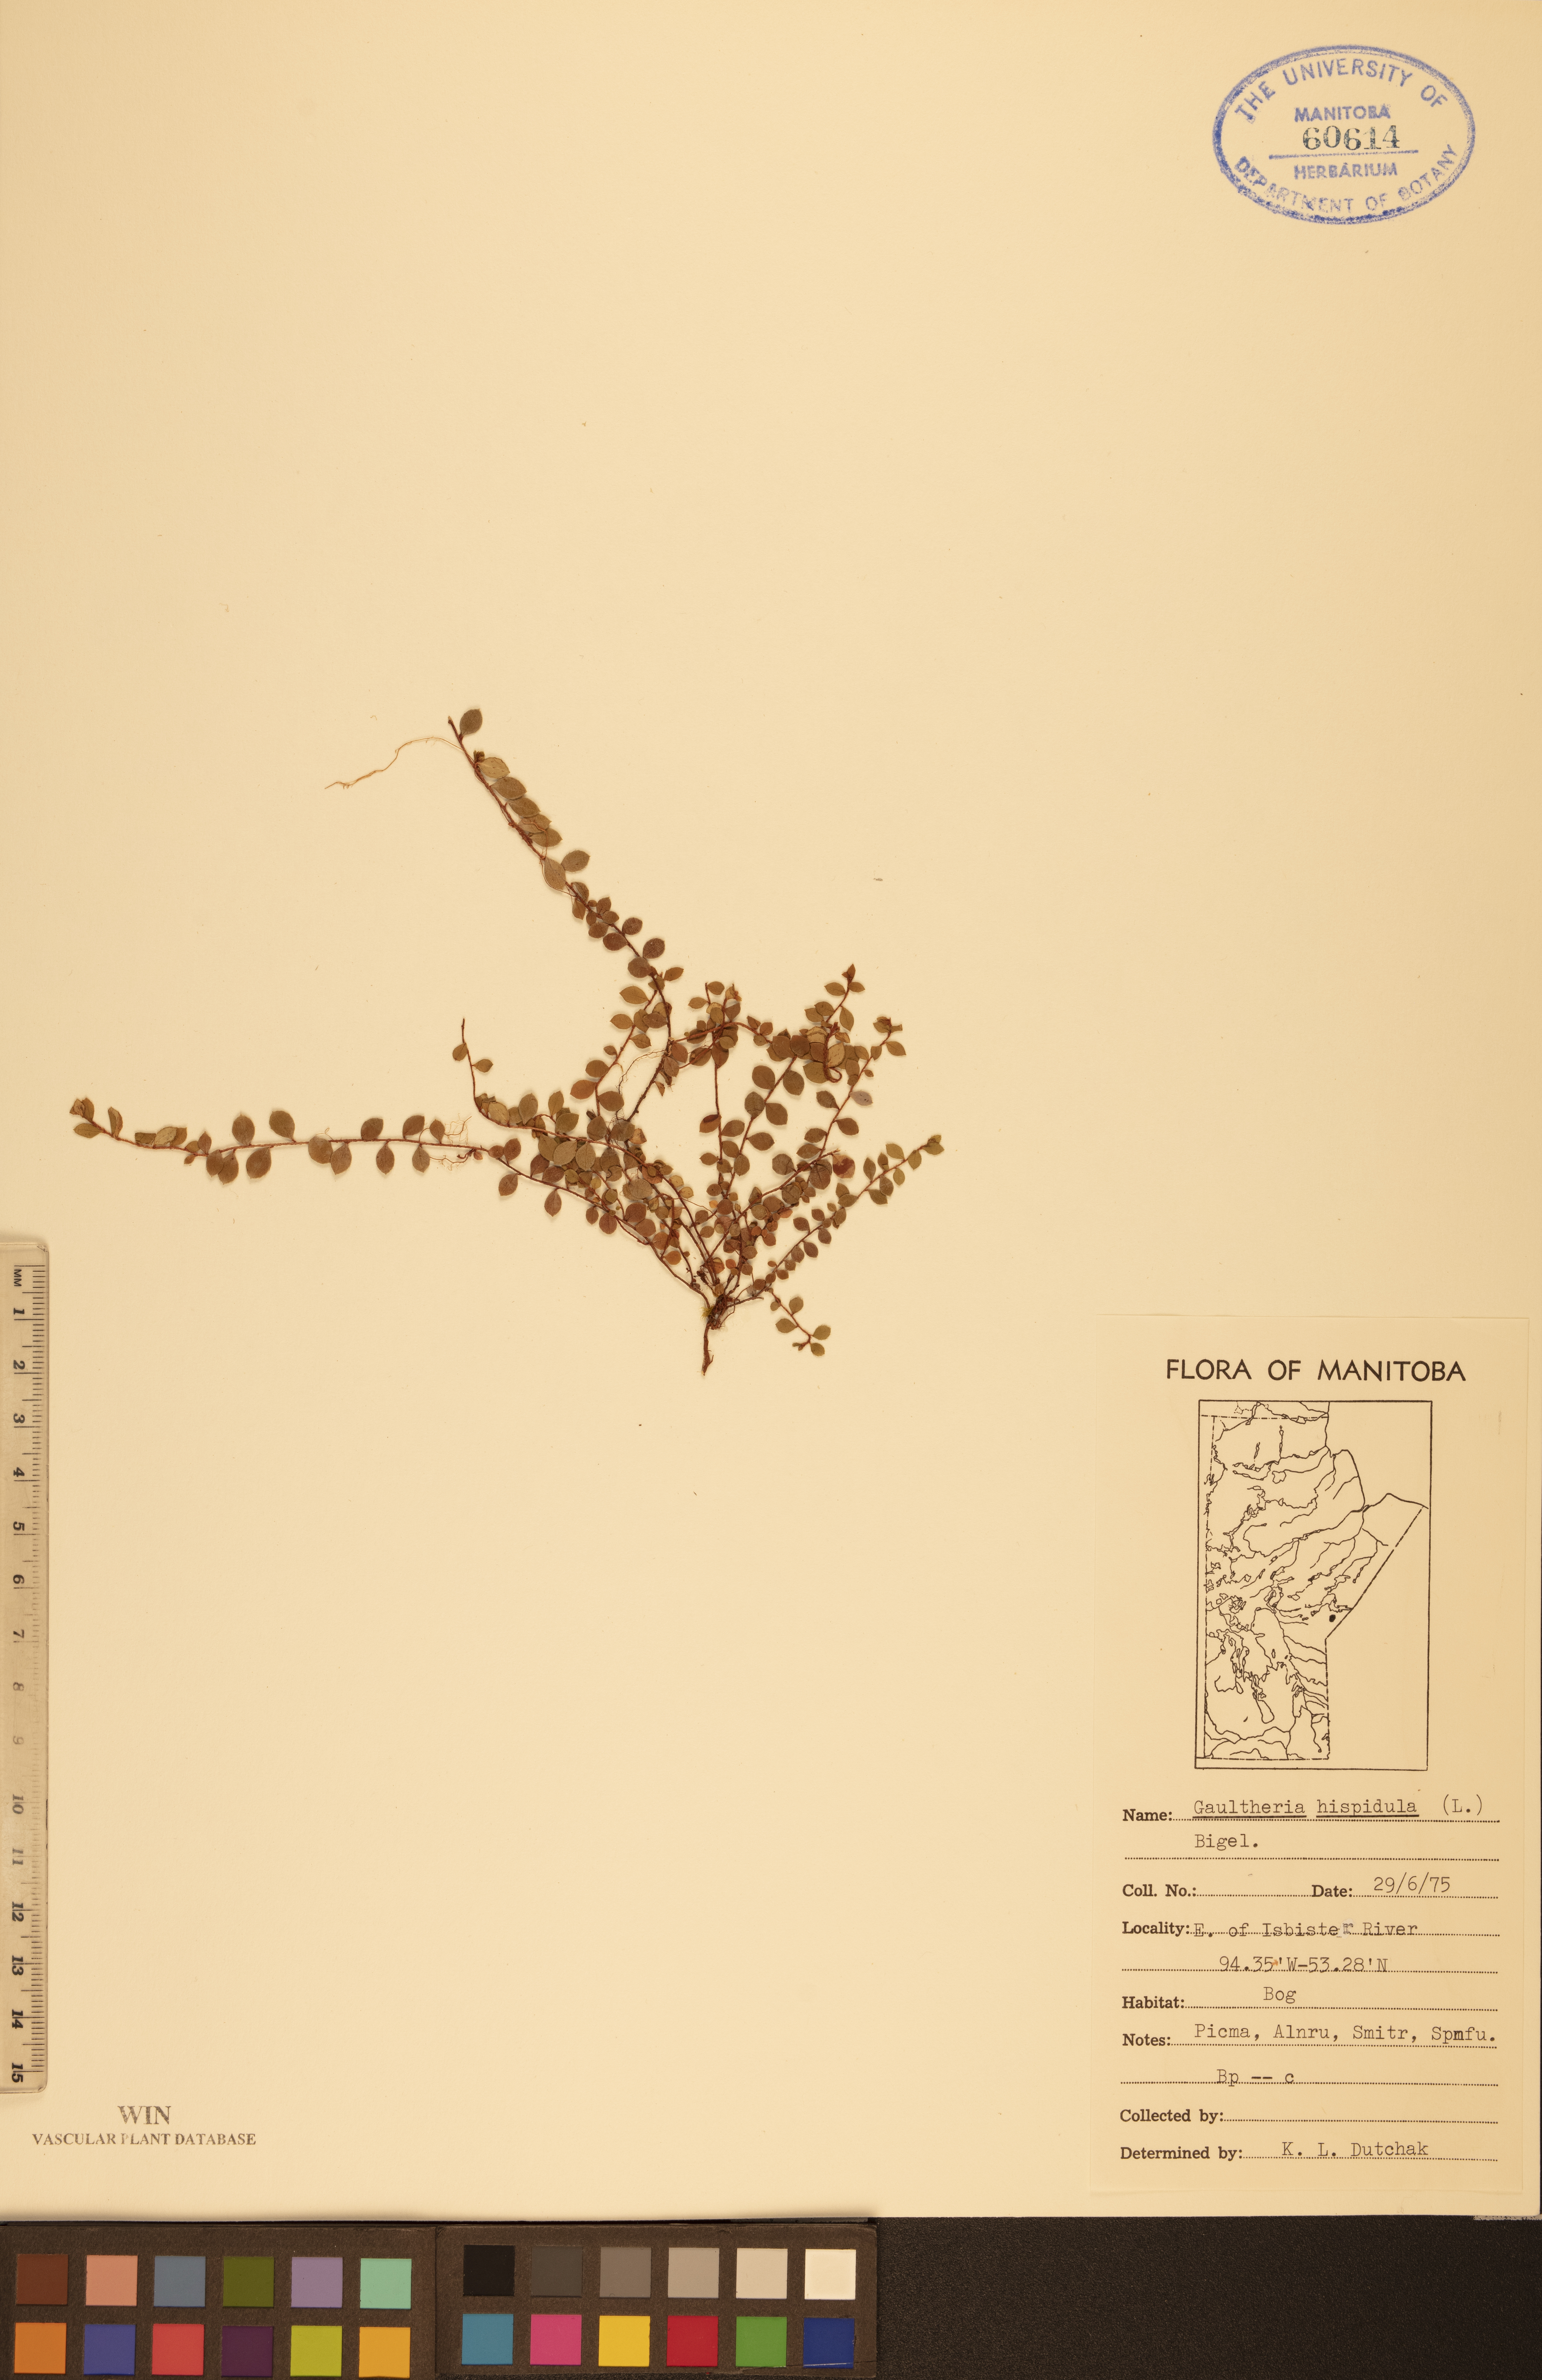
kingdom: Plantae
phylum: Tracheophyta
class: Magnoliopsida
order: Ericales
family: Ericaceae
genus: Gaultheria
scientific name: Gaultheria hispidula
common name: Cancer wintergreen
